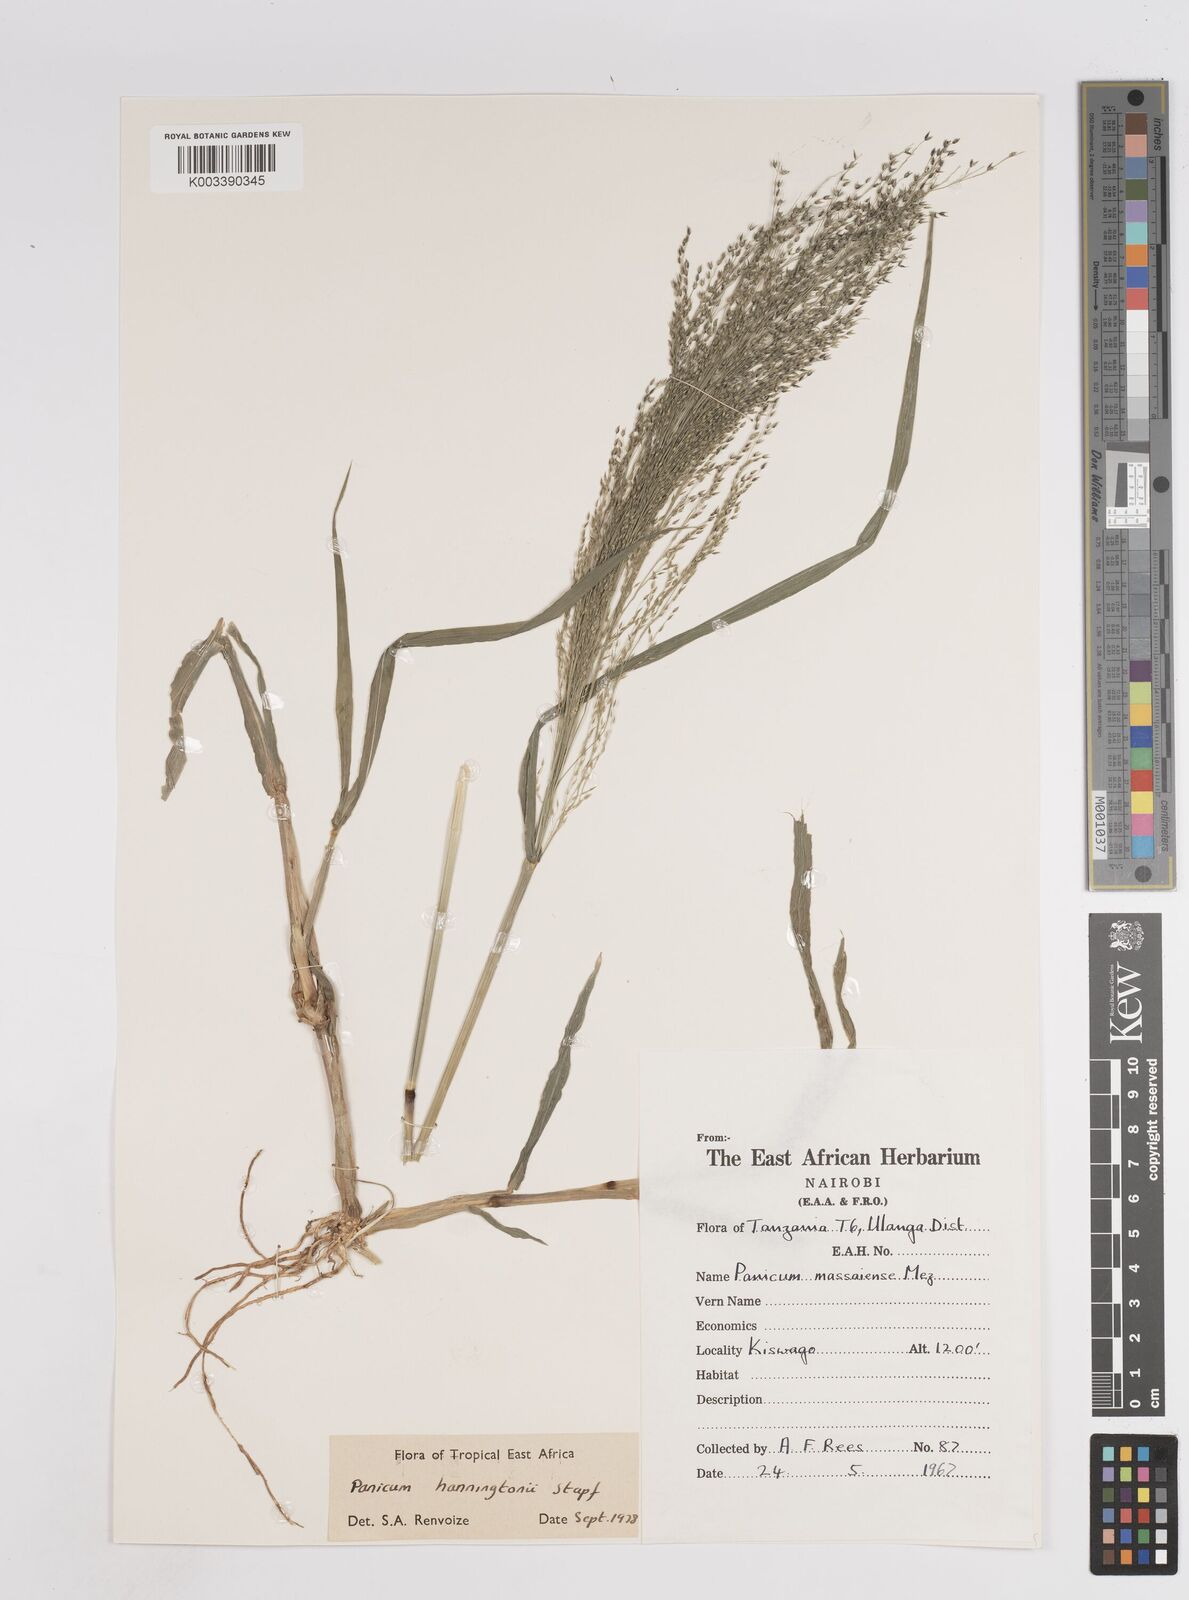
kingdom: Plantae
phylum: Tracheophyta
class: Liliopsida
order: Poales
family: Poaceae
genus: Panicum
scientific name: Panicum hanningtonii
